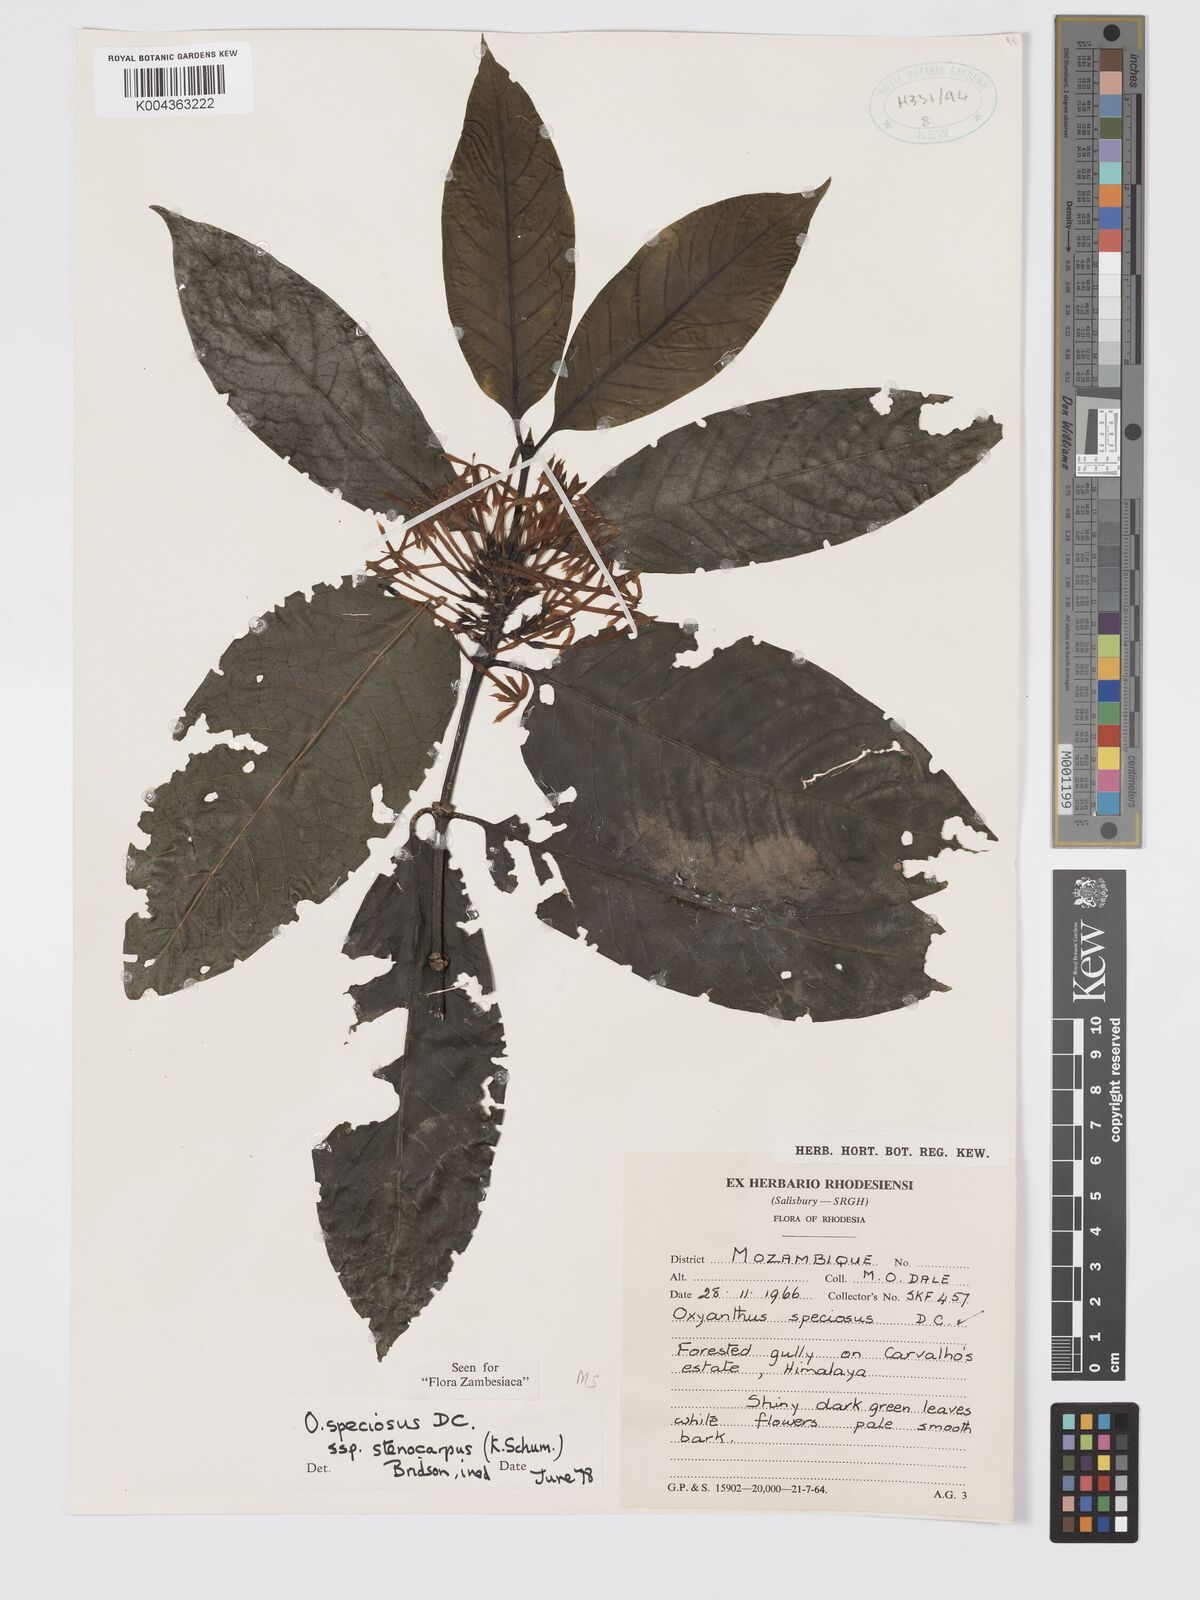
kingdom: Plantae
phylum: Tracheophyta
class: Magnoliopsida
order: Gentianales
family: Rubiaceae
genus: Oxyanthus
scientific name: Oxyanthus speciosus
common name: Whipstick loquat
